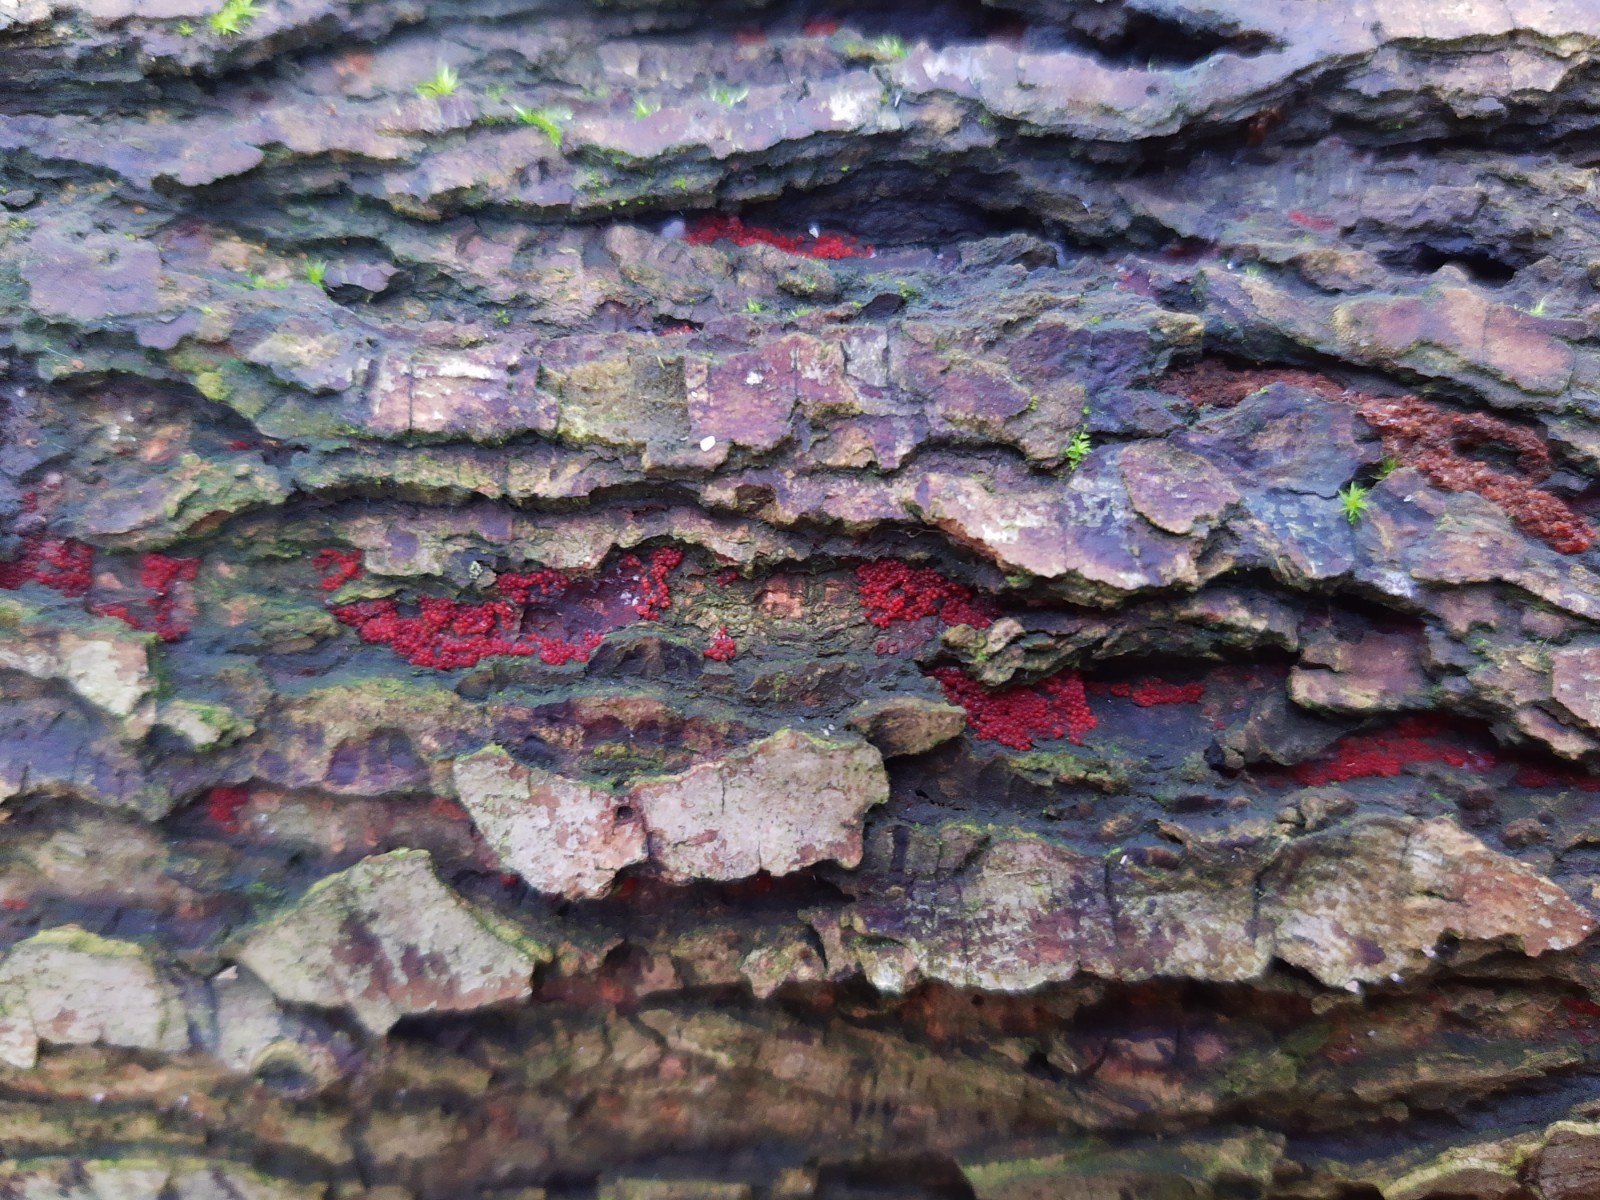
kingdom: Fungi
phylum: Ascomycota
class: Sordariomycetes
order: Hypocreales
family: Nectriaceae
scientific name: Nectriaceae
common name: cinnobersvampfamilien
